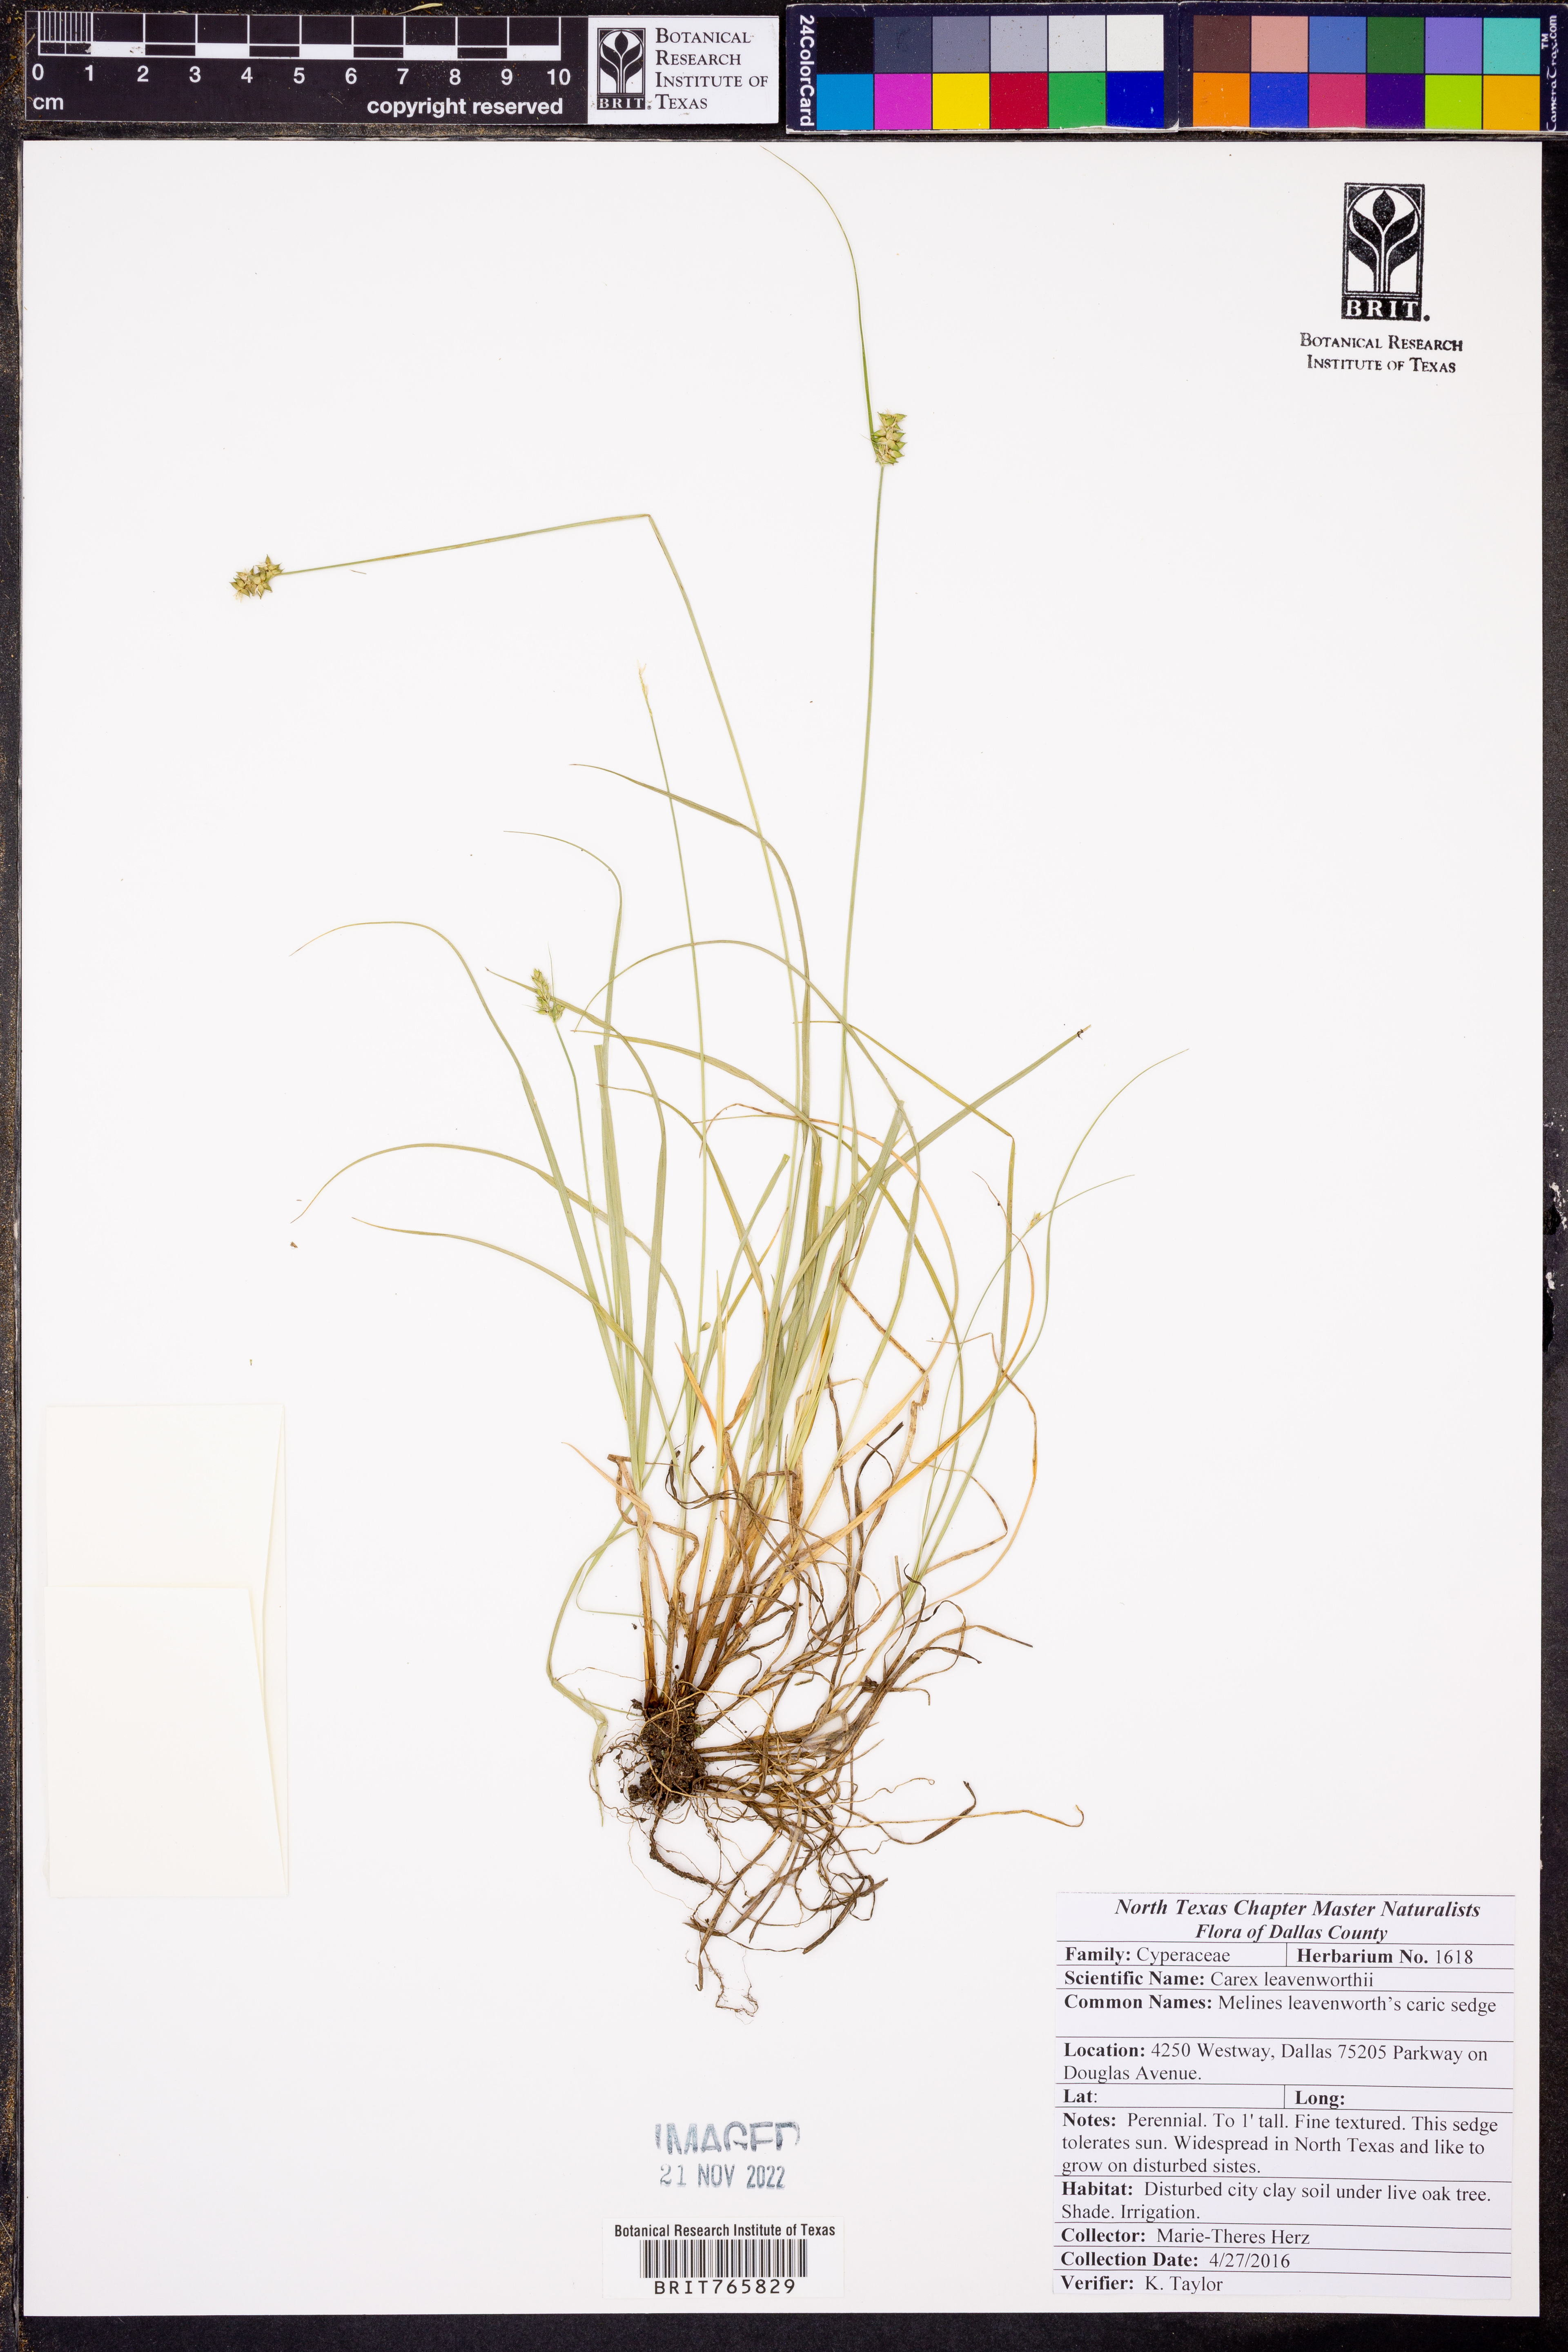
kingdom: Plantae
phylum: Tracheophyta
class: Liliopsida
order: Poales
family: Cyperaceae
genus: Carex
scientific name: Carex leavenworthii
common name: Leavenworth's bracted sedge
